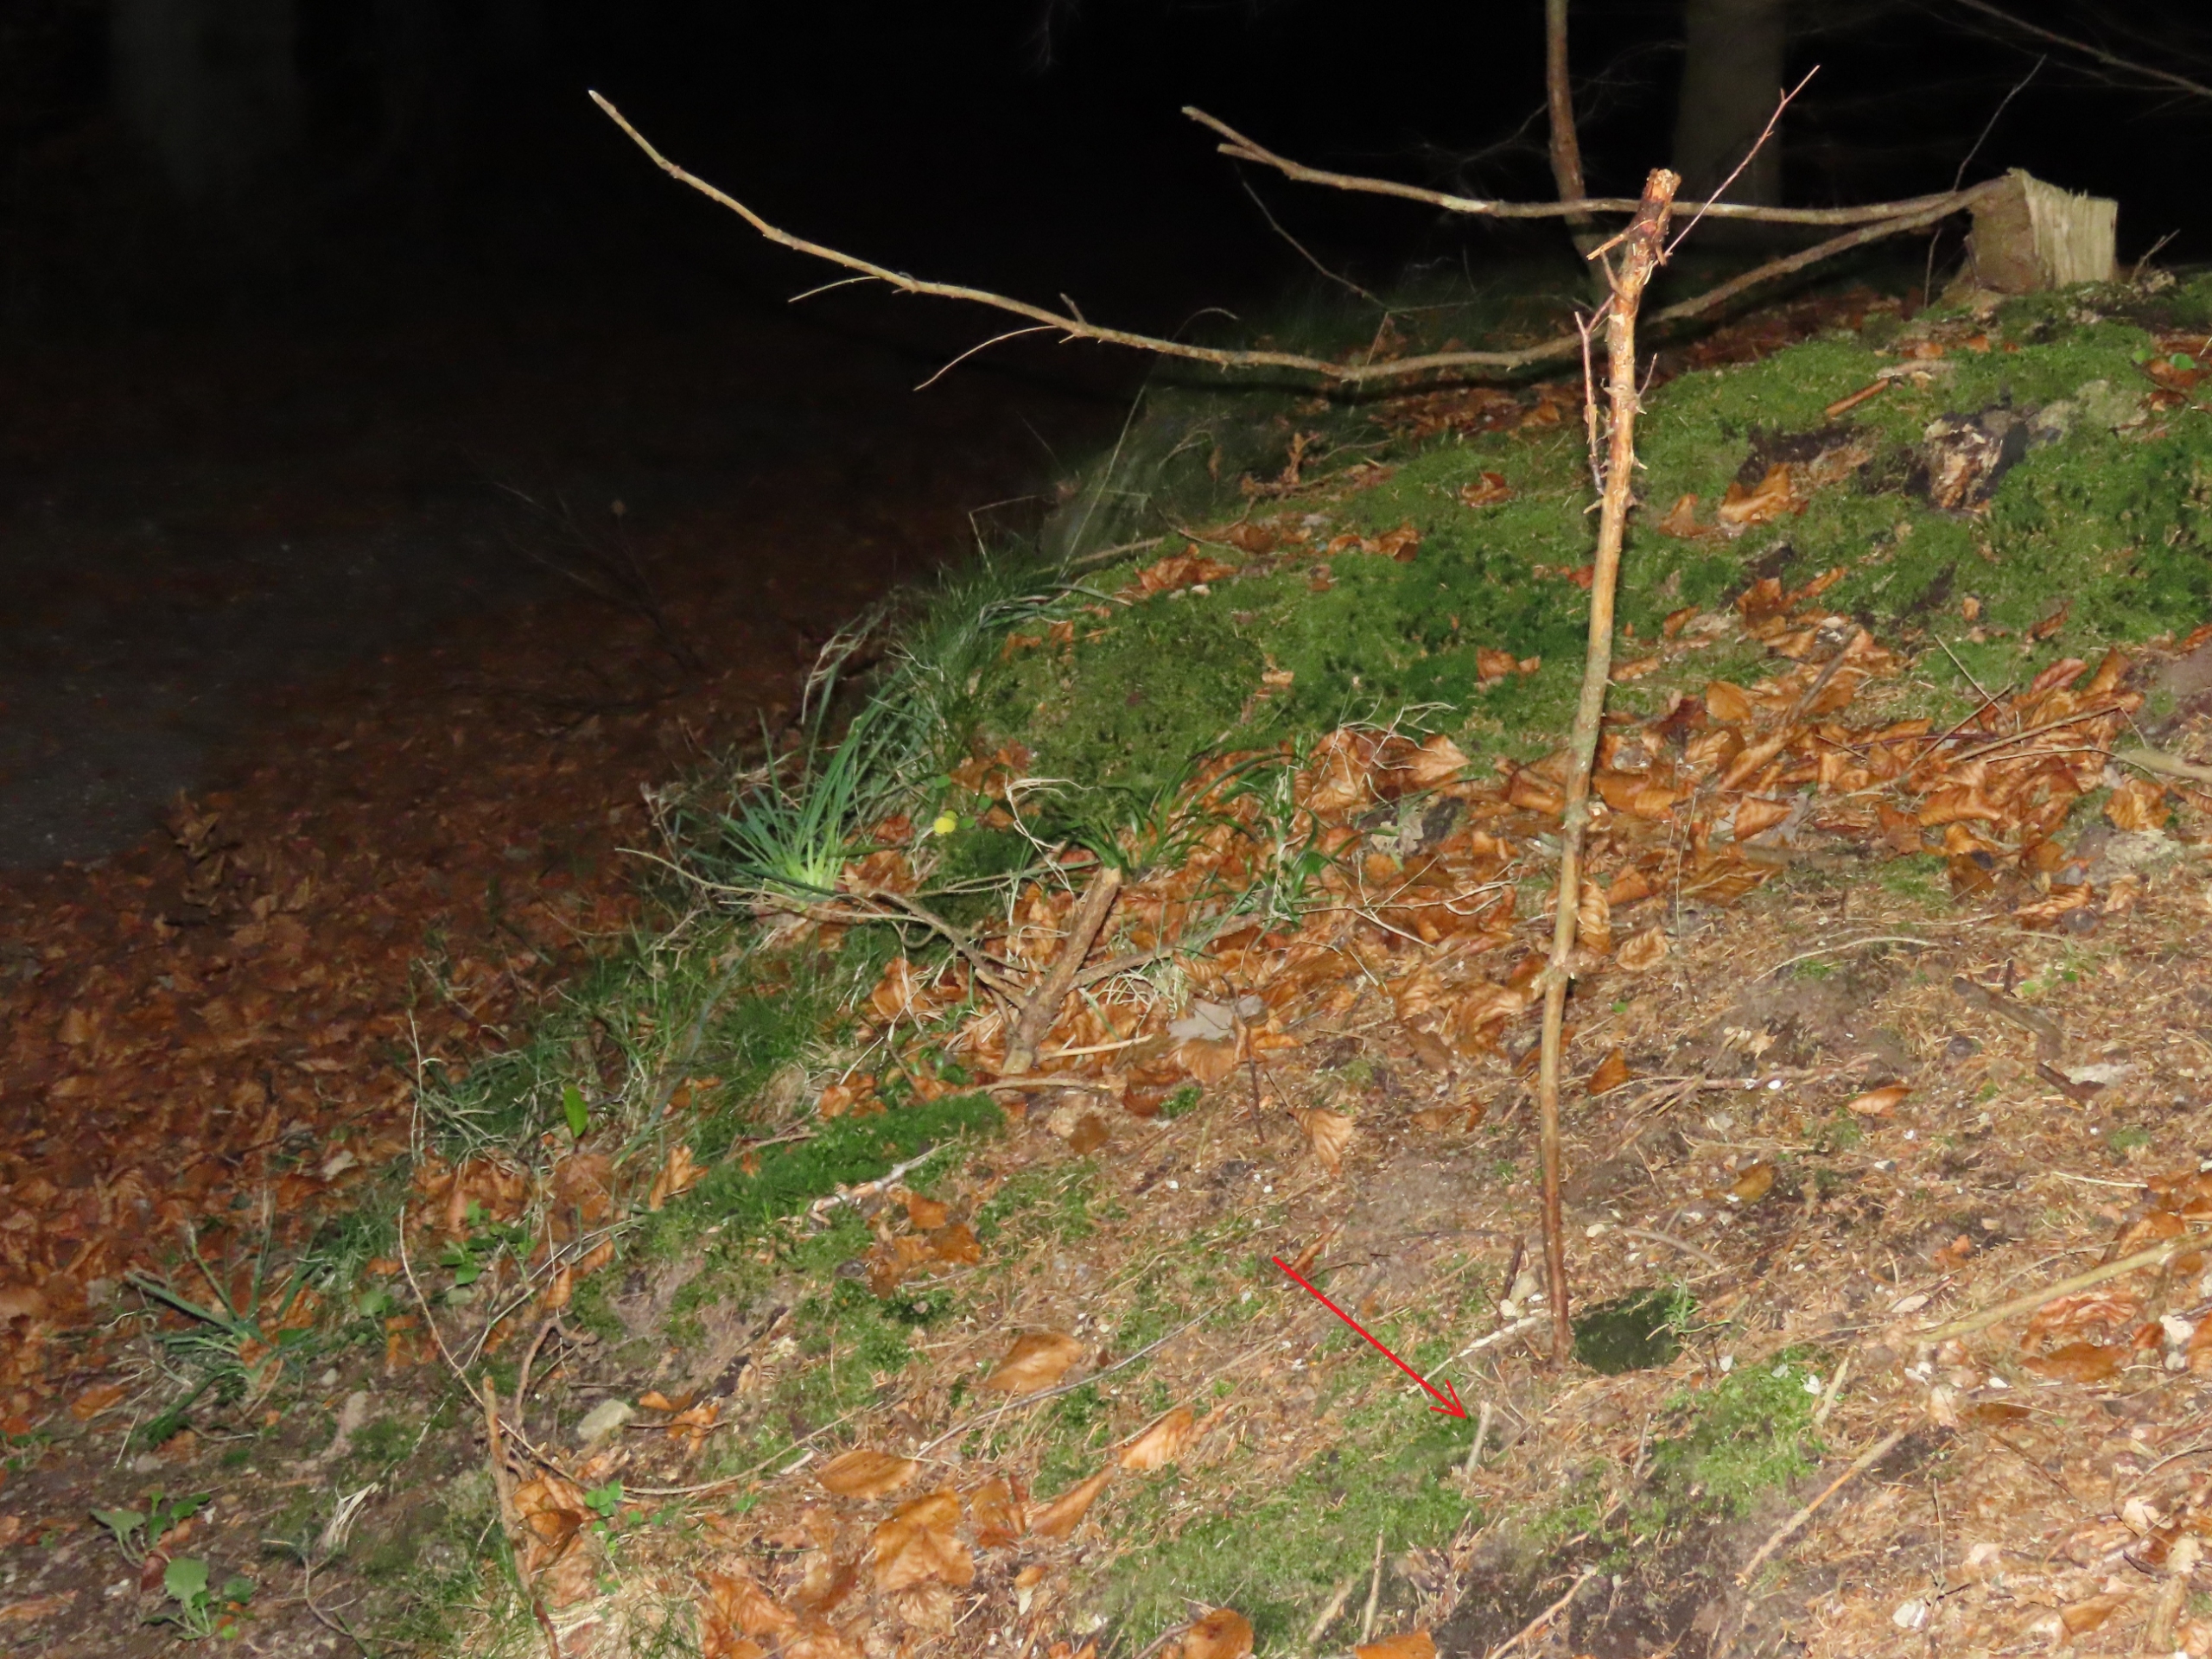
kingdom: Plantae
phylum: Bryophyta
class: Bryopsida
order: Buxbaumiales
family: Buxbaumiaceae
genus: Buxbaumia
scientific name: Buxbaumia viridis
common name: Grøn buxbaumia
